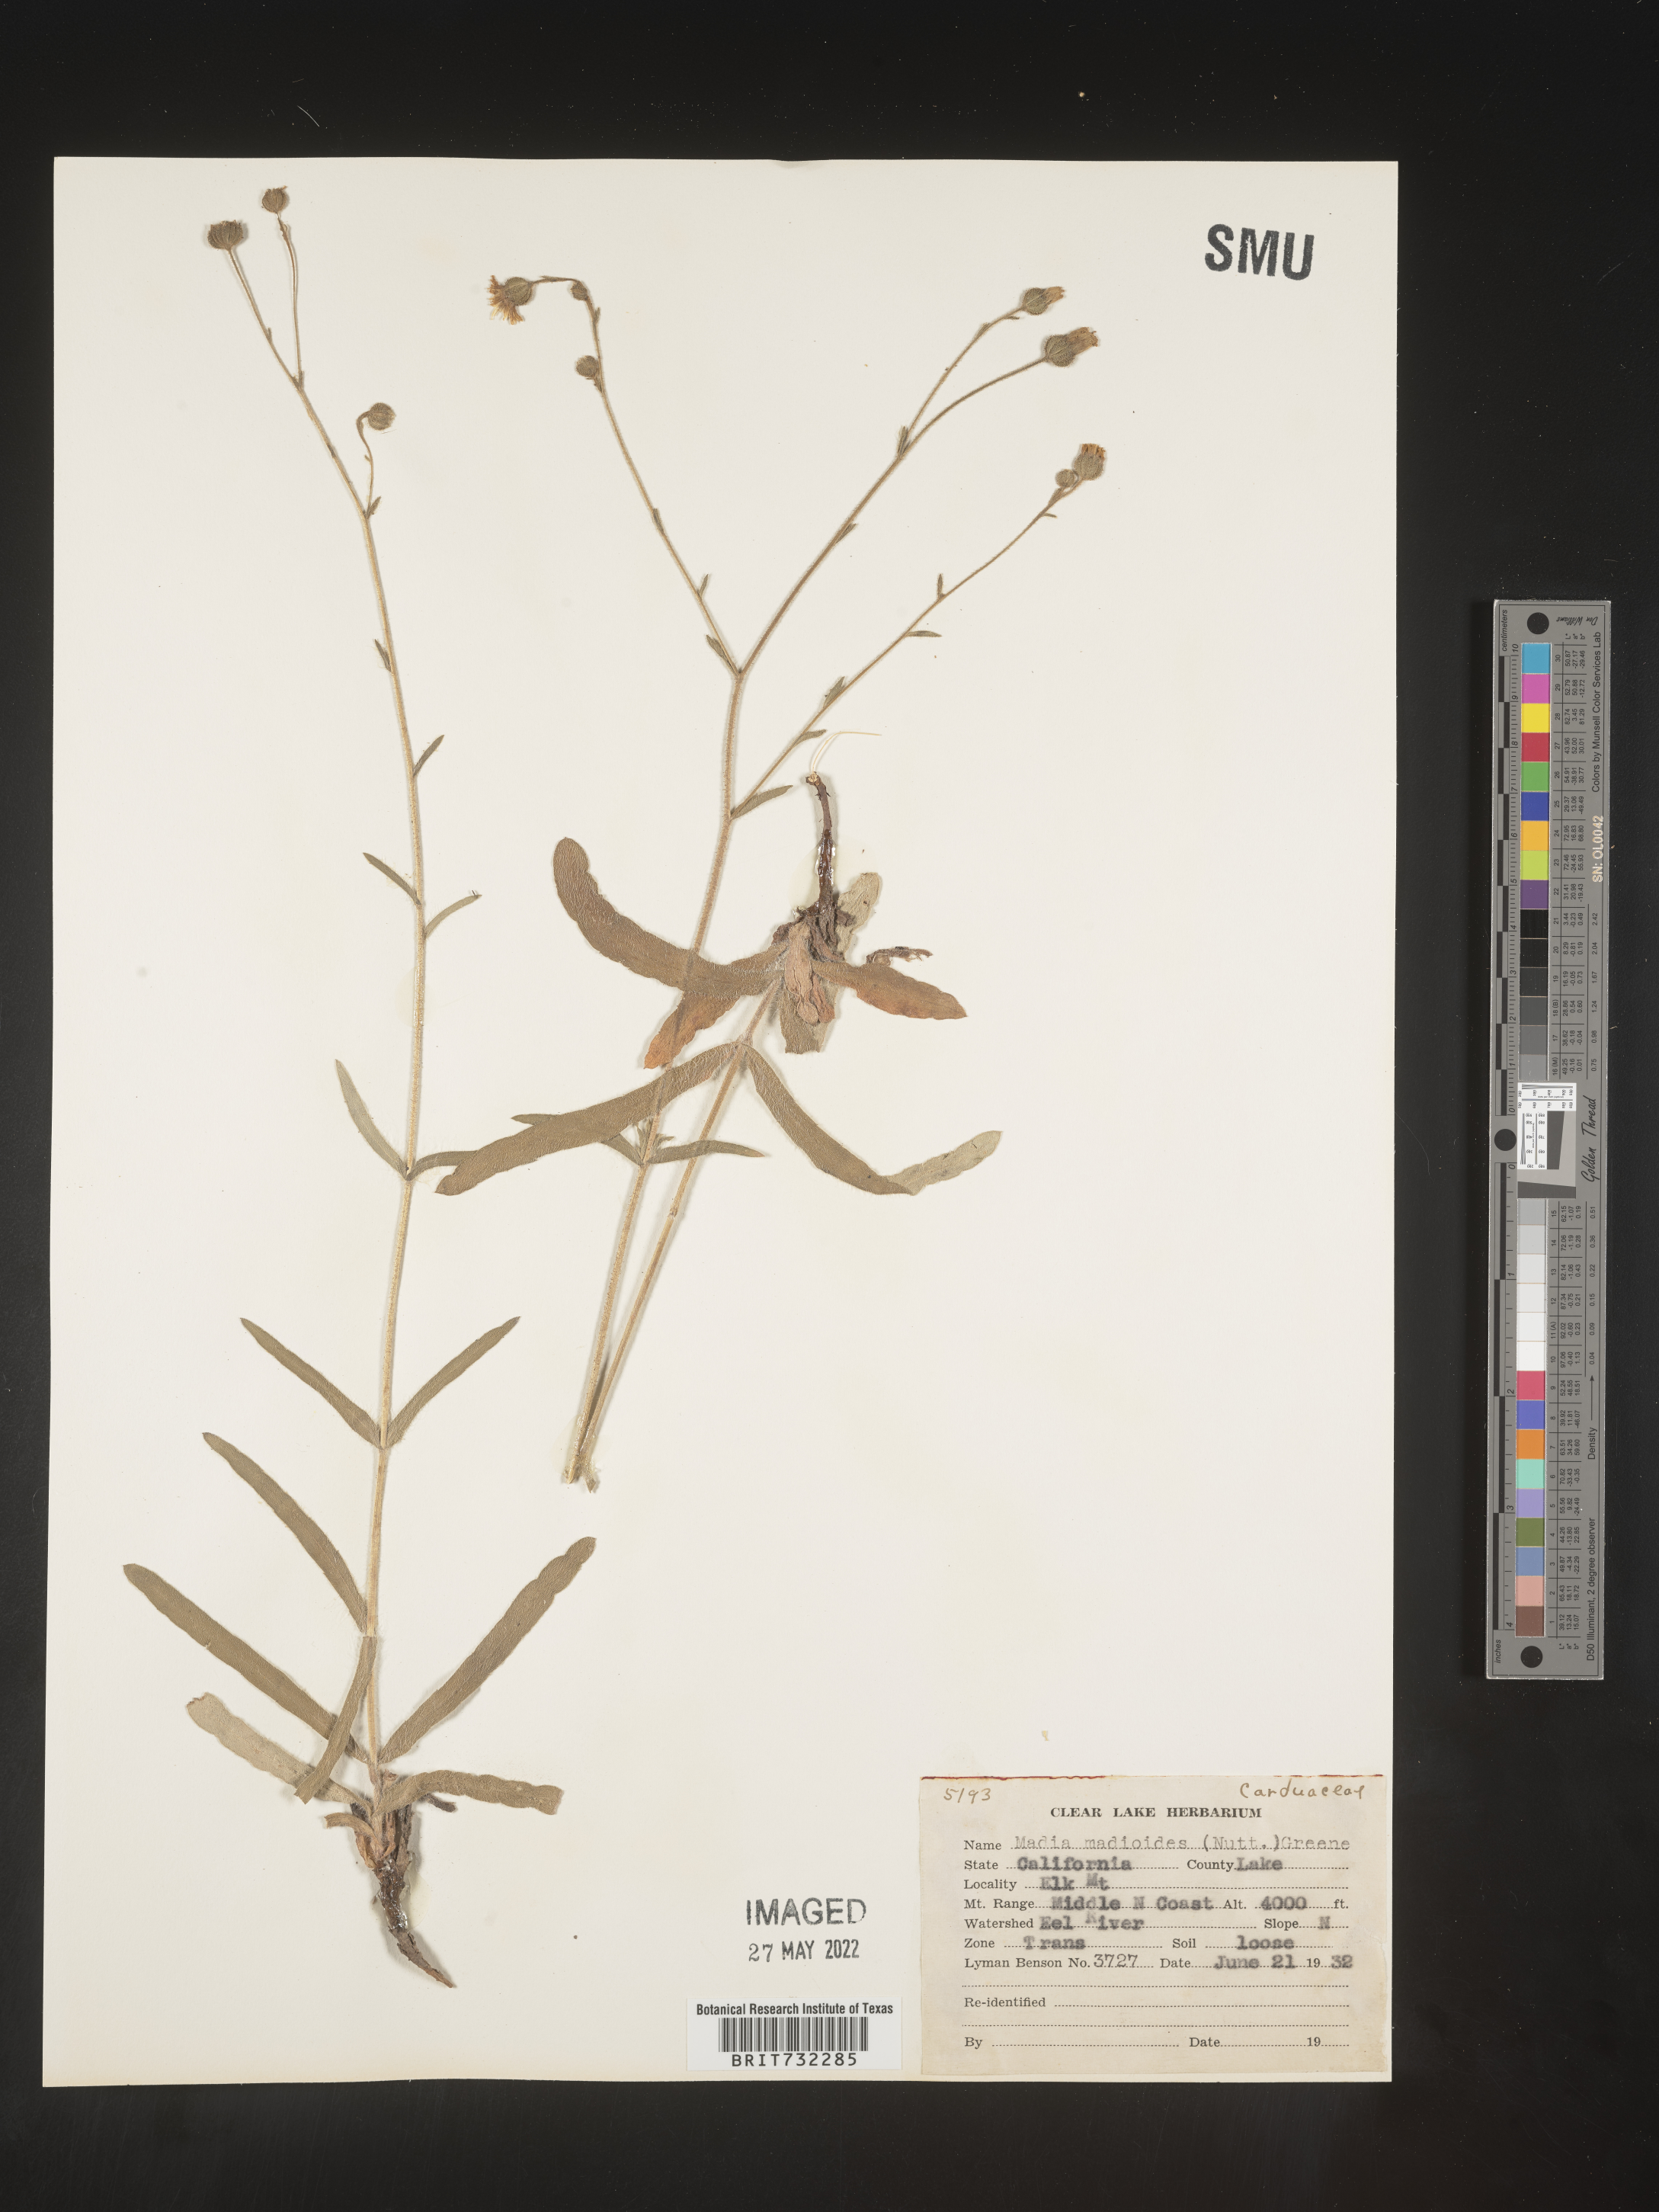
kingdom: Plantae
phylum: Tracheophyta
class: Magnoliopsida
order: Asterales
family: Asteraceae
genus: Madia
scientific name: Madia
